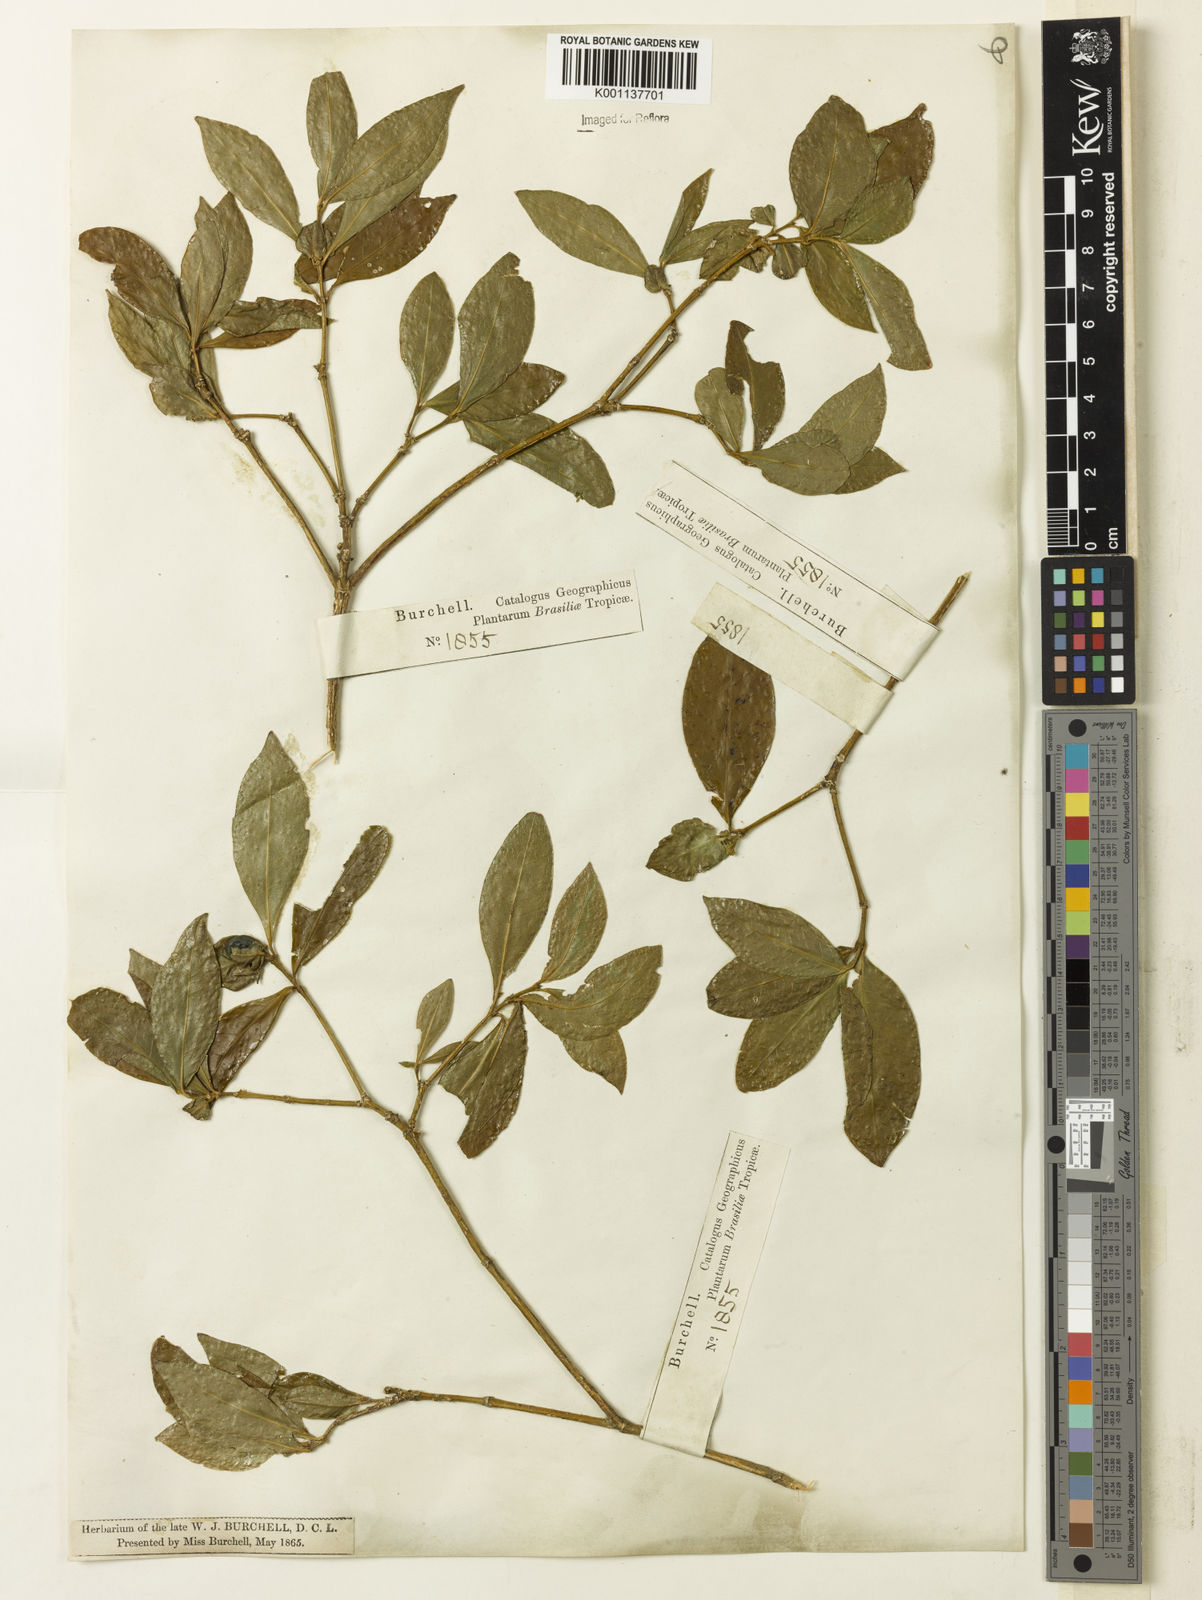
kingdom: Plantae
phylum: Tracheophyta
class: Magnoliopsida
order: Gentianales
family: Rubiaceae
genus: Coussarea
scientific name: Coussarea
